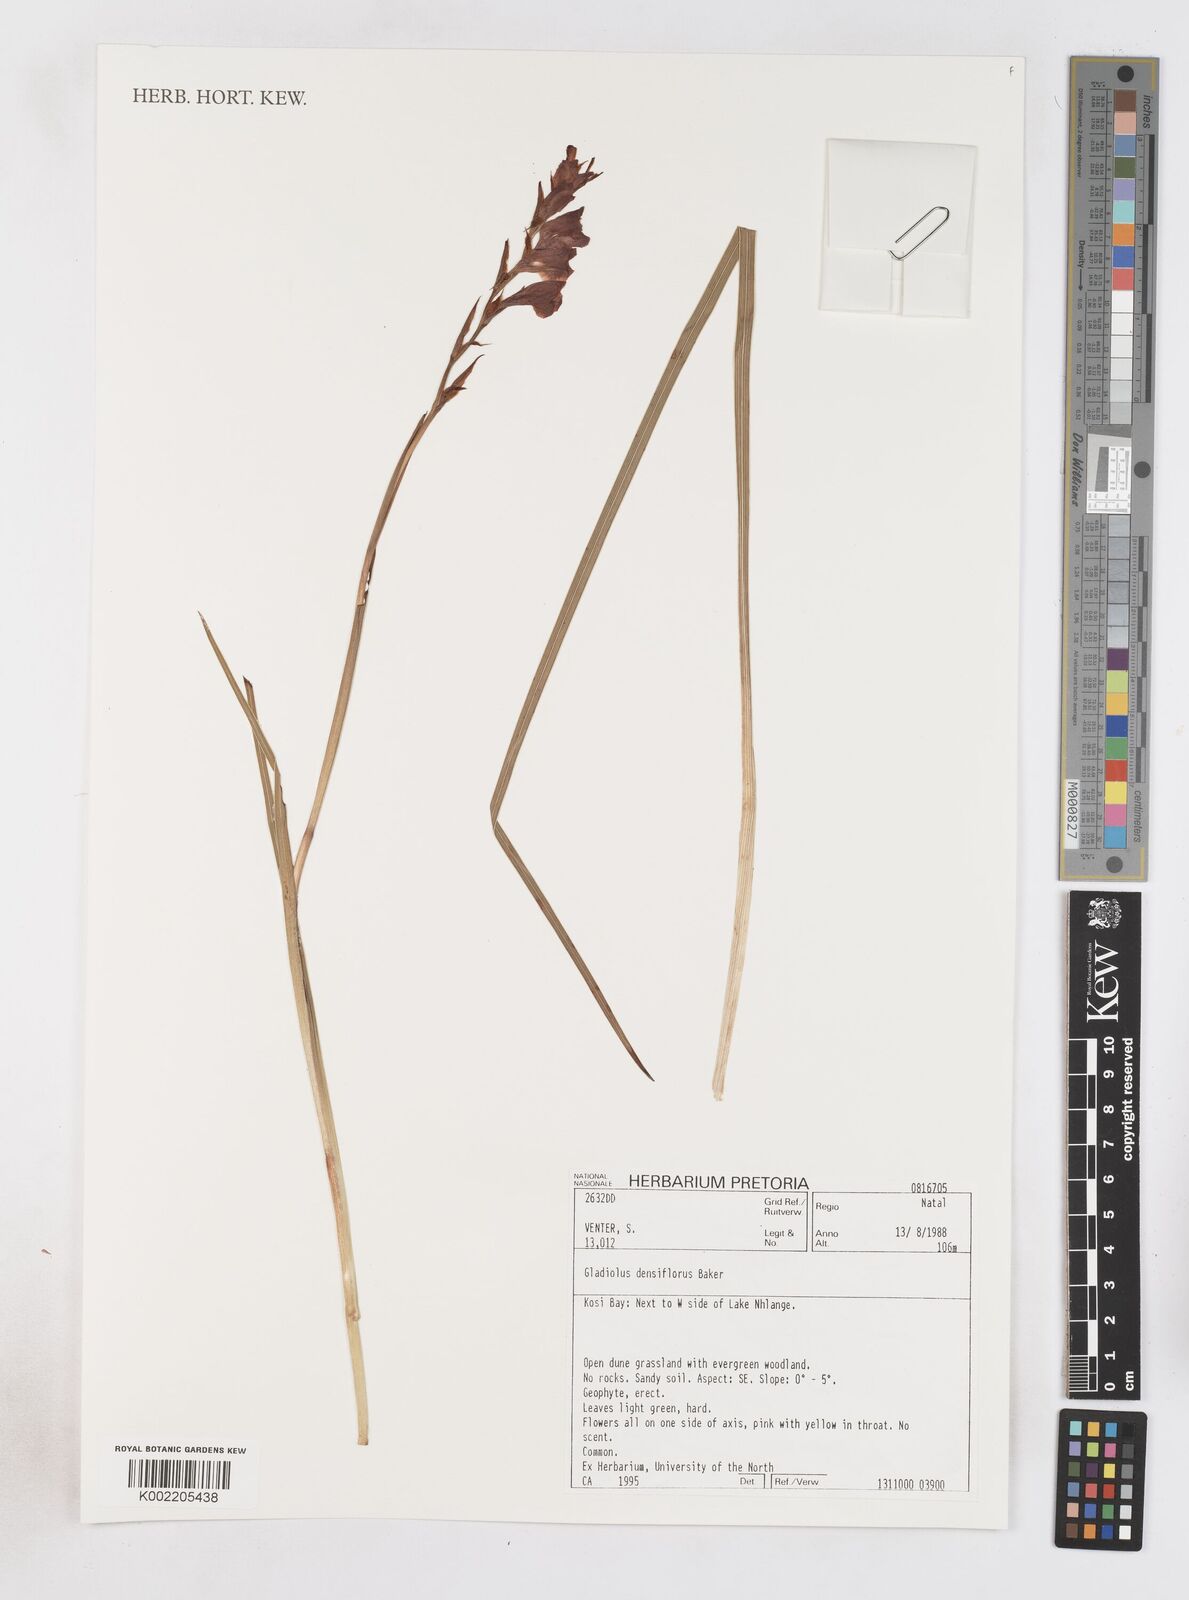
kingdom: Plantae
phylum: Tracheophyta
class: Liliopsida
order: Asparagales
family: Iridaceae
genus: Gladiolus
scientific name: Gladiolus densiflorus
